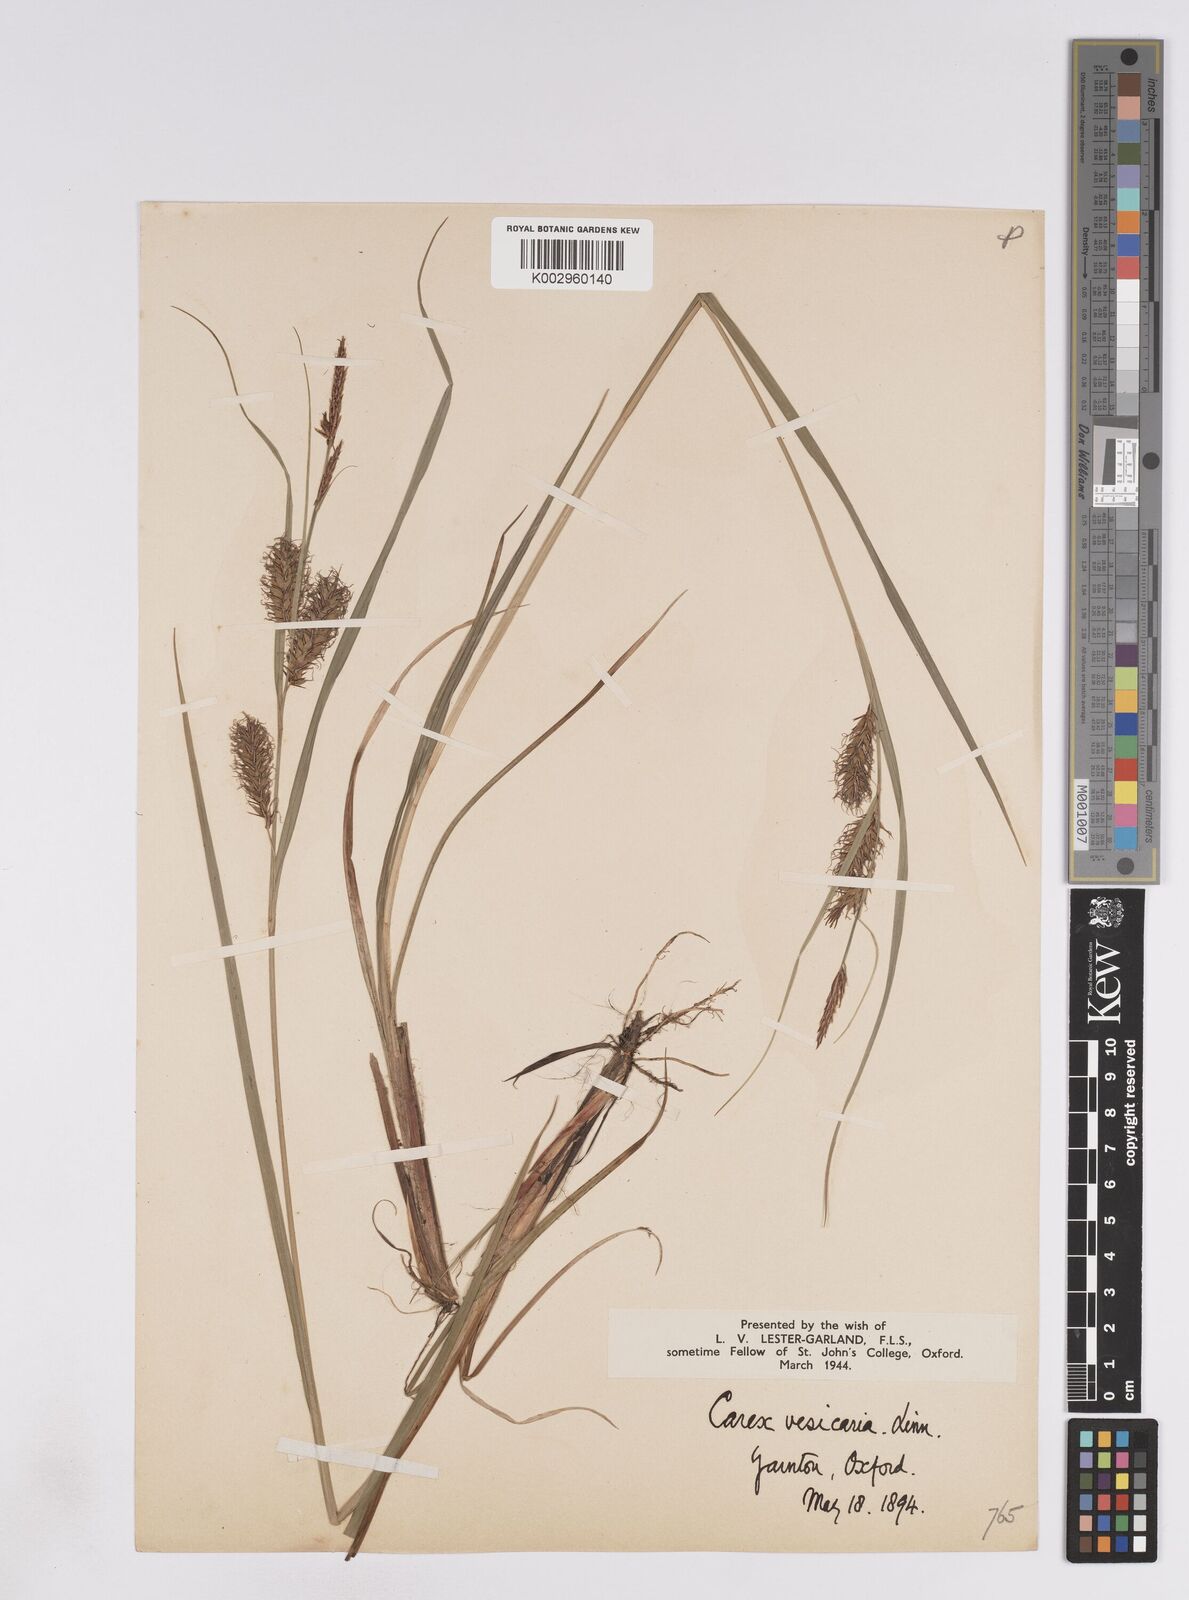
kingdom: Plantae
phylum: Tracheophyta
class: Liliopsida
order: Poales
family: Cyperaceae
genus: Carex
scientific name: Carex vesicaria
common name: Bladder-sedge
